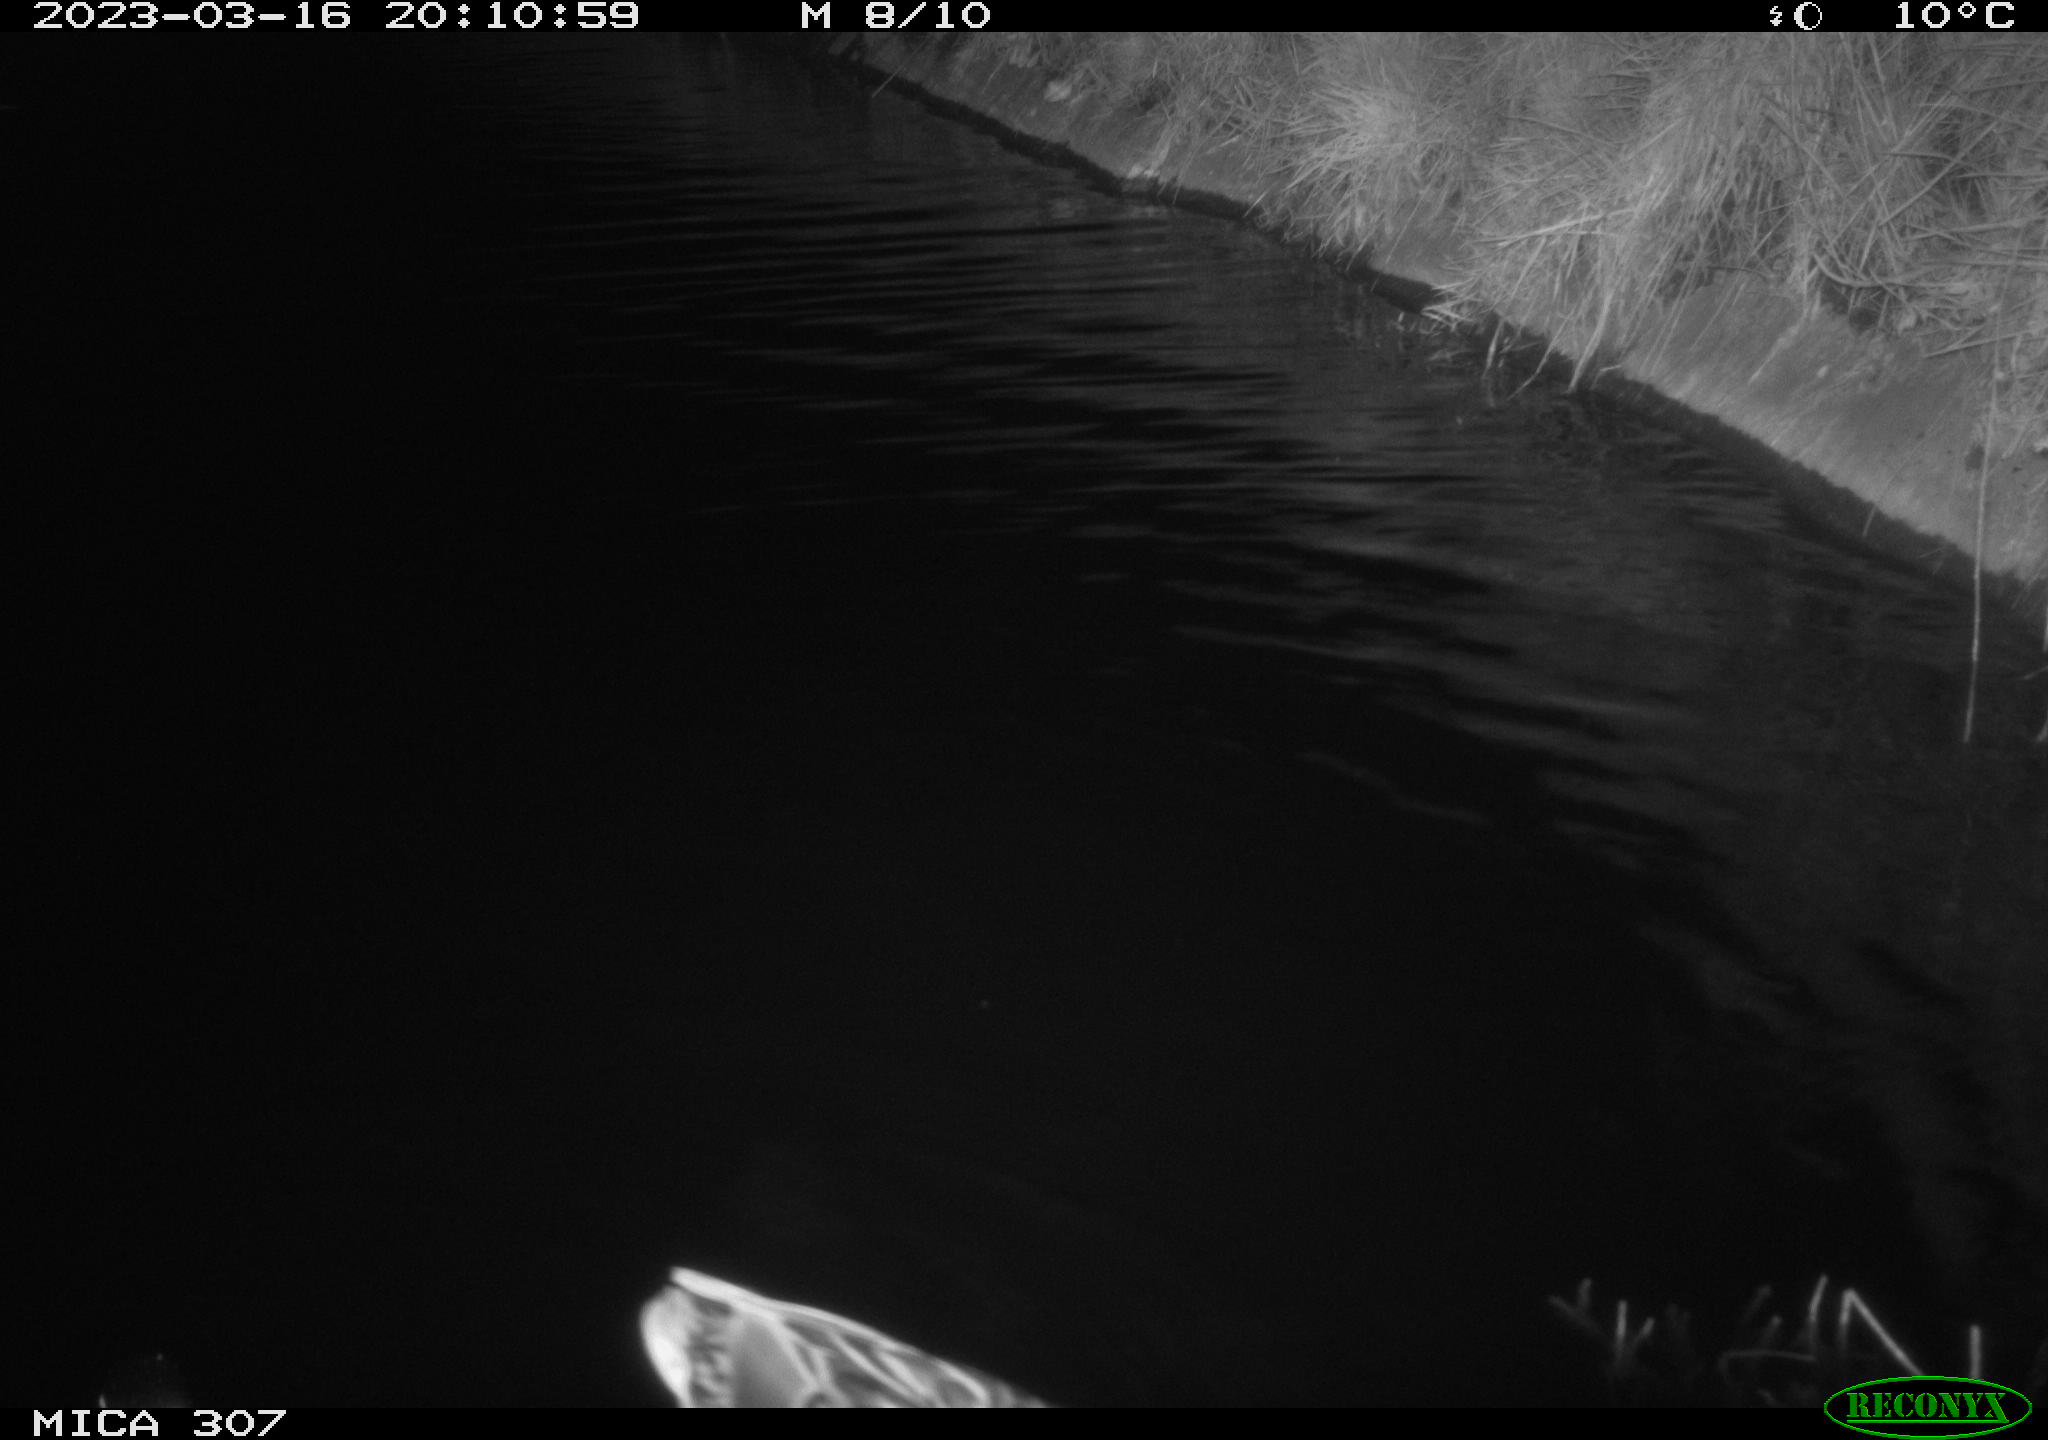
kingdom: Animalia
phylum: Chordata
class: Aves
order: Anseriformes
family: Anatidae
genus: Anas
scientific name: Anas
